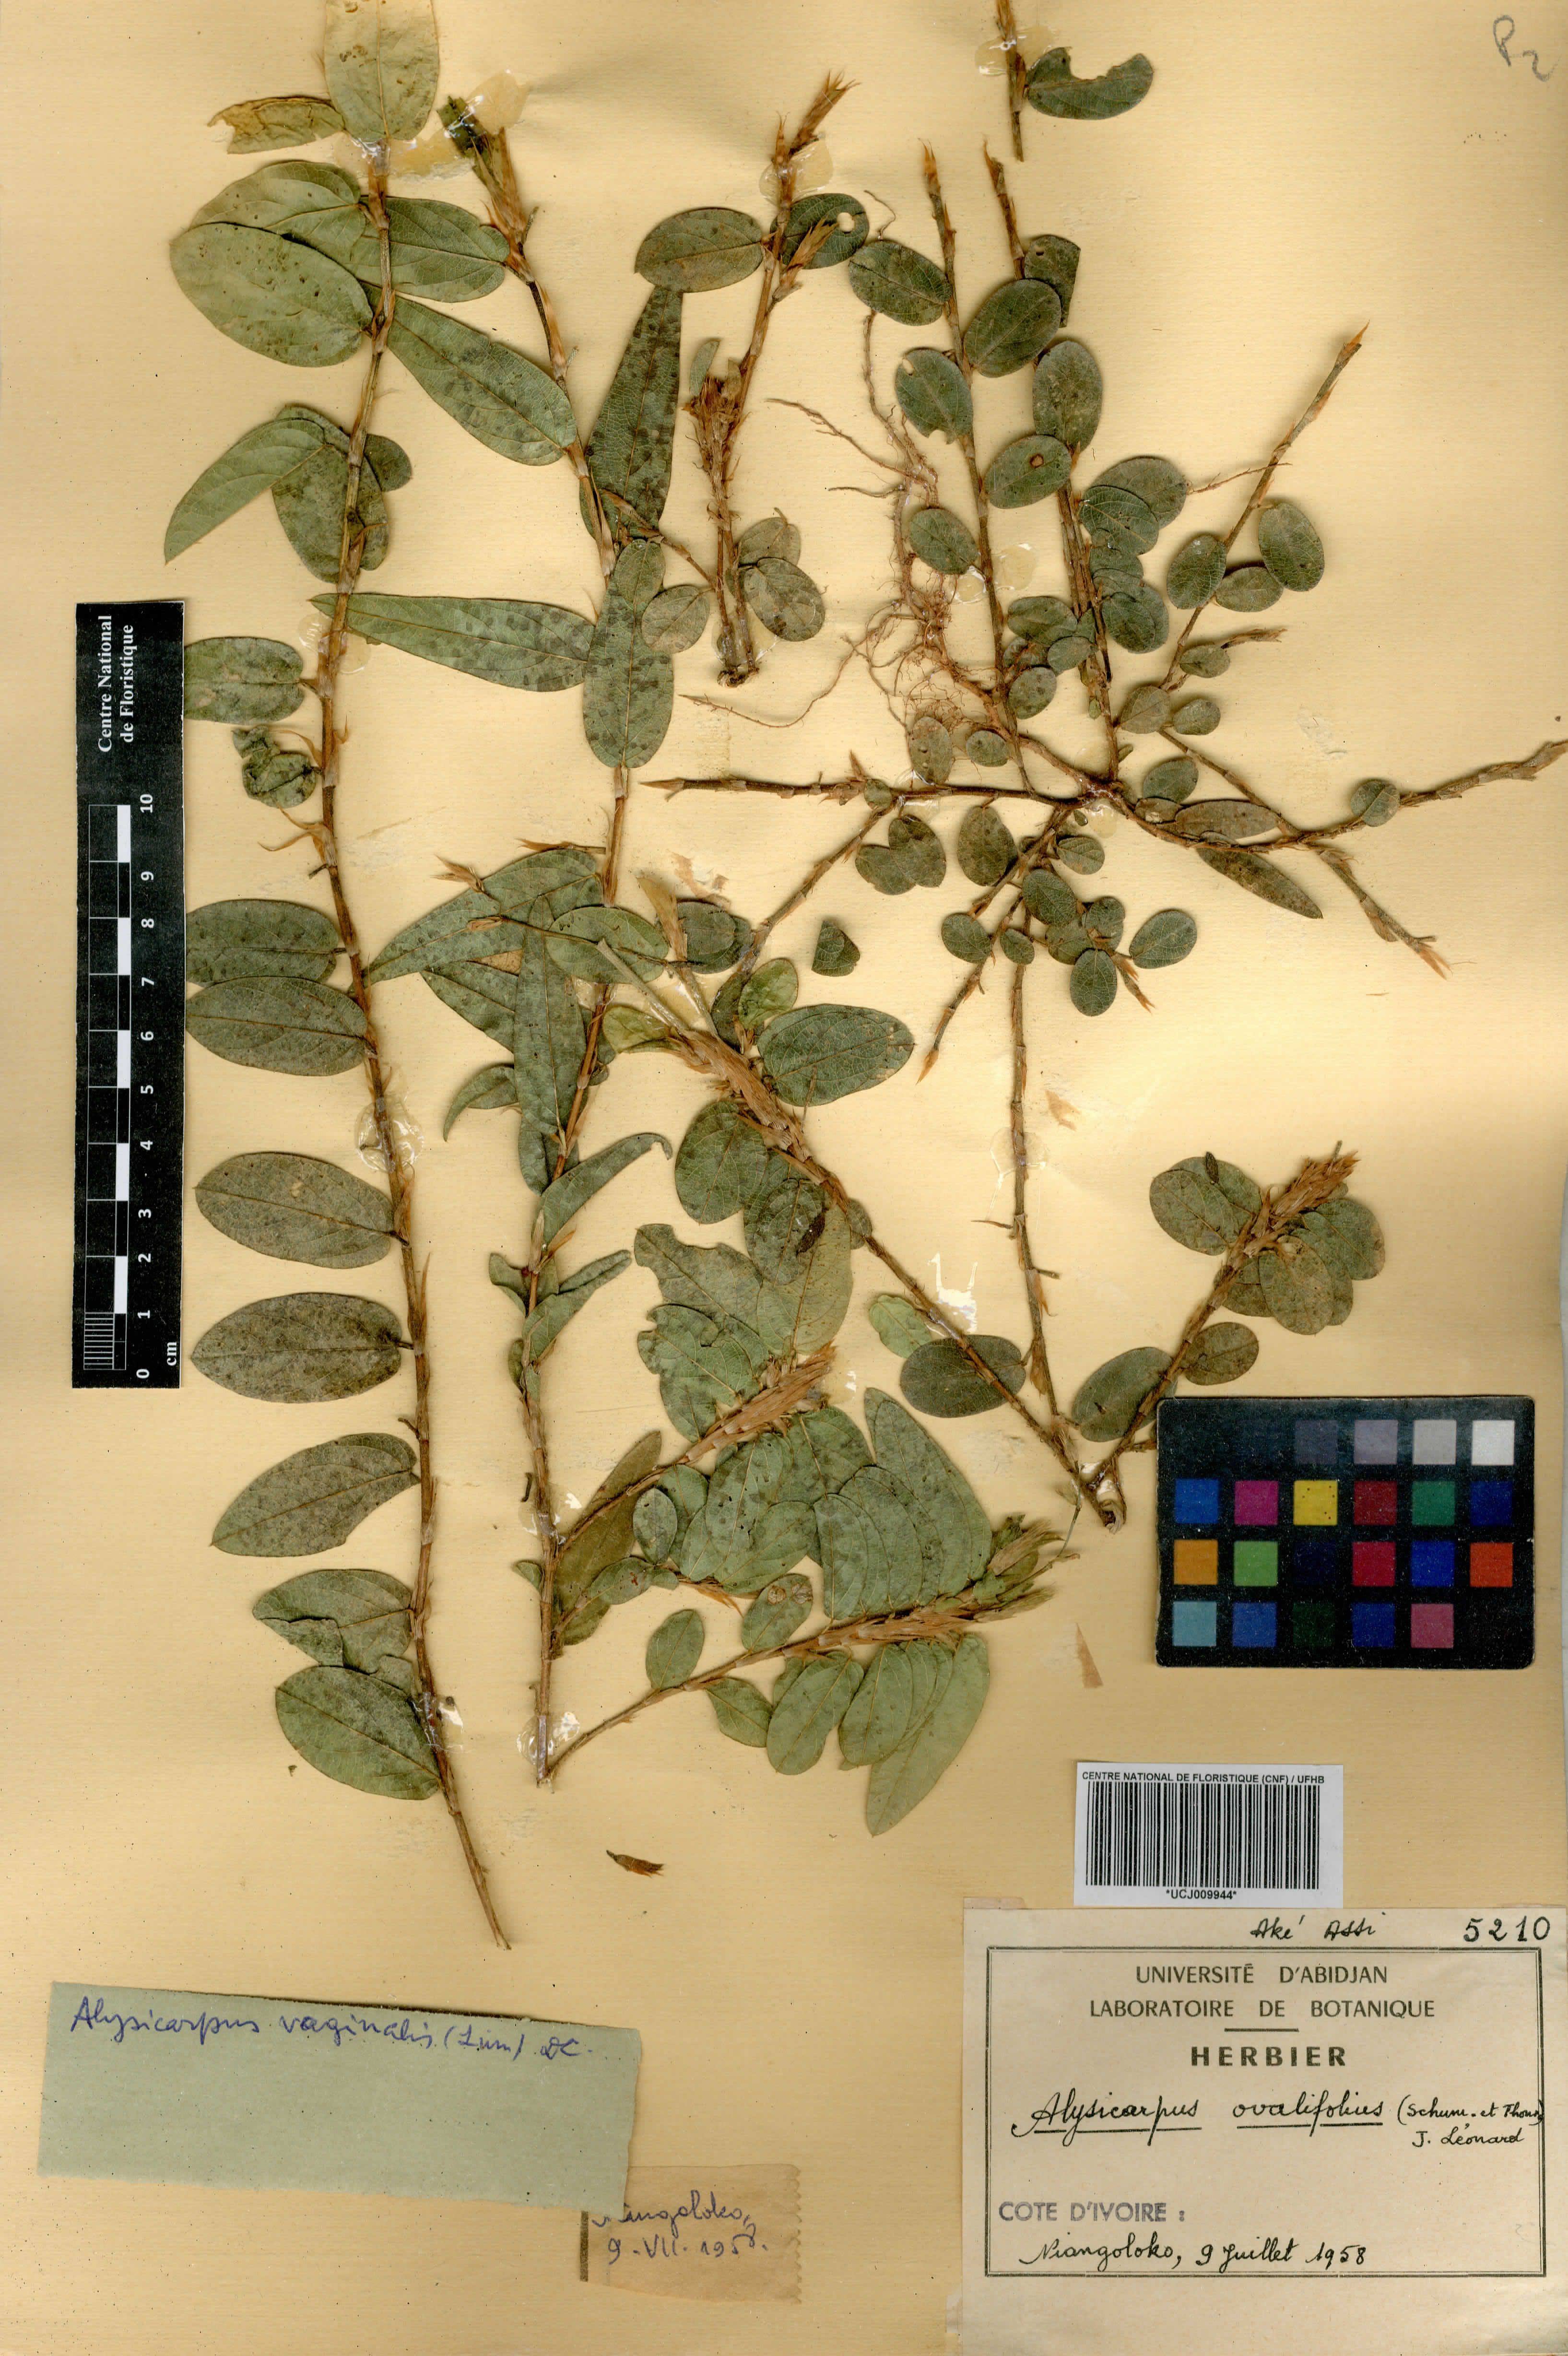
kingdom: Plantae
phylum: Tracheophyta
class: Magnoliopsida
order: Fabales
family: Fabaceae
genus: Alysicarpus
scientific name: Alysicarpus ovalifolius
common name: Alyce clover
